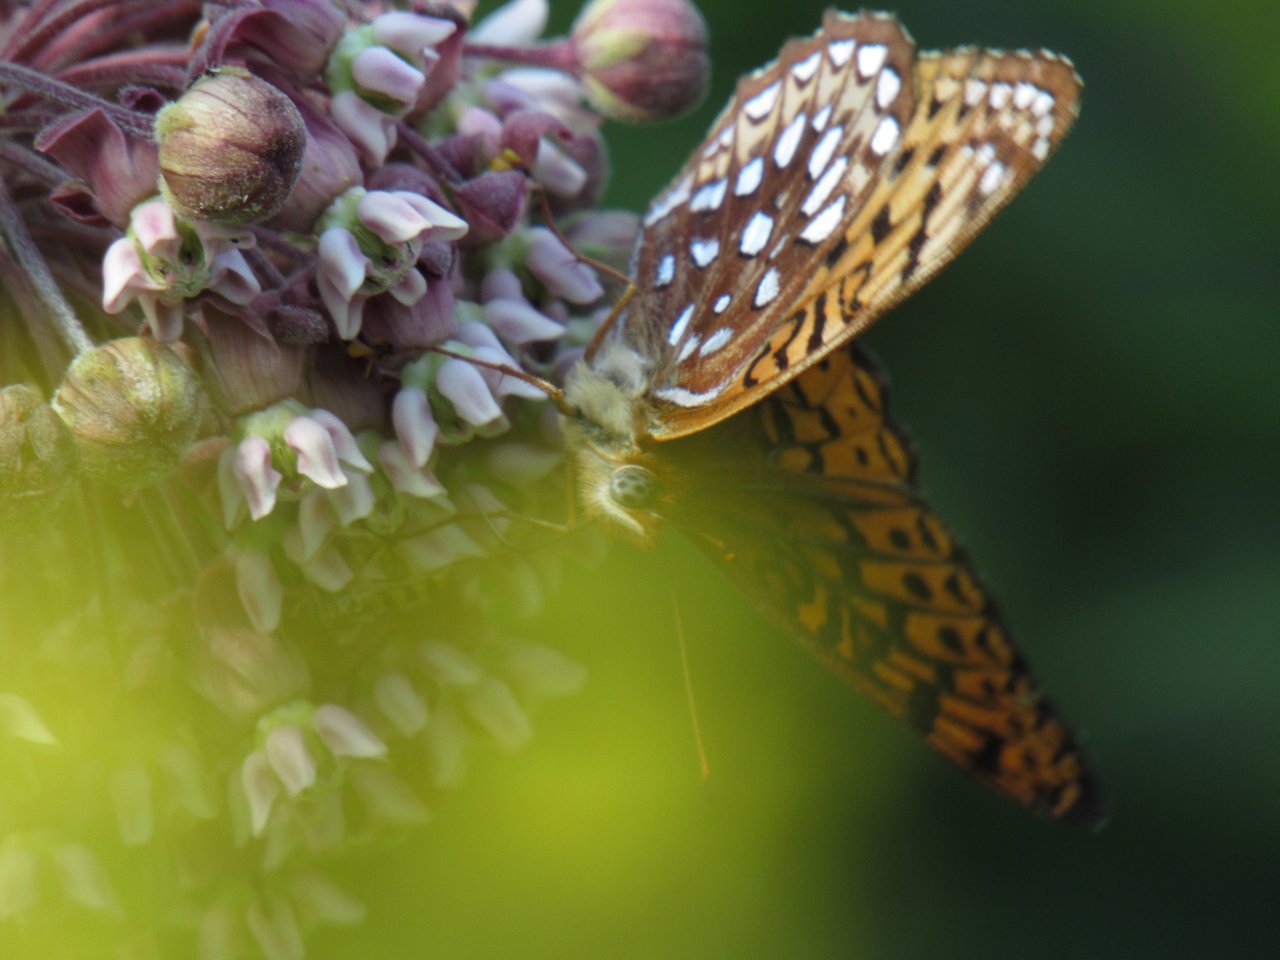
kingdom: Animalia
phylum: Arthropoda
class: Insecta
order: Lepidoptera
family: Nymphalidae
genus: Speyeria
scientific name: Speyeria atlantis
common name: Atlantis Fritillary
